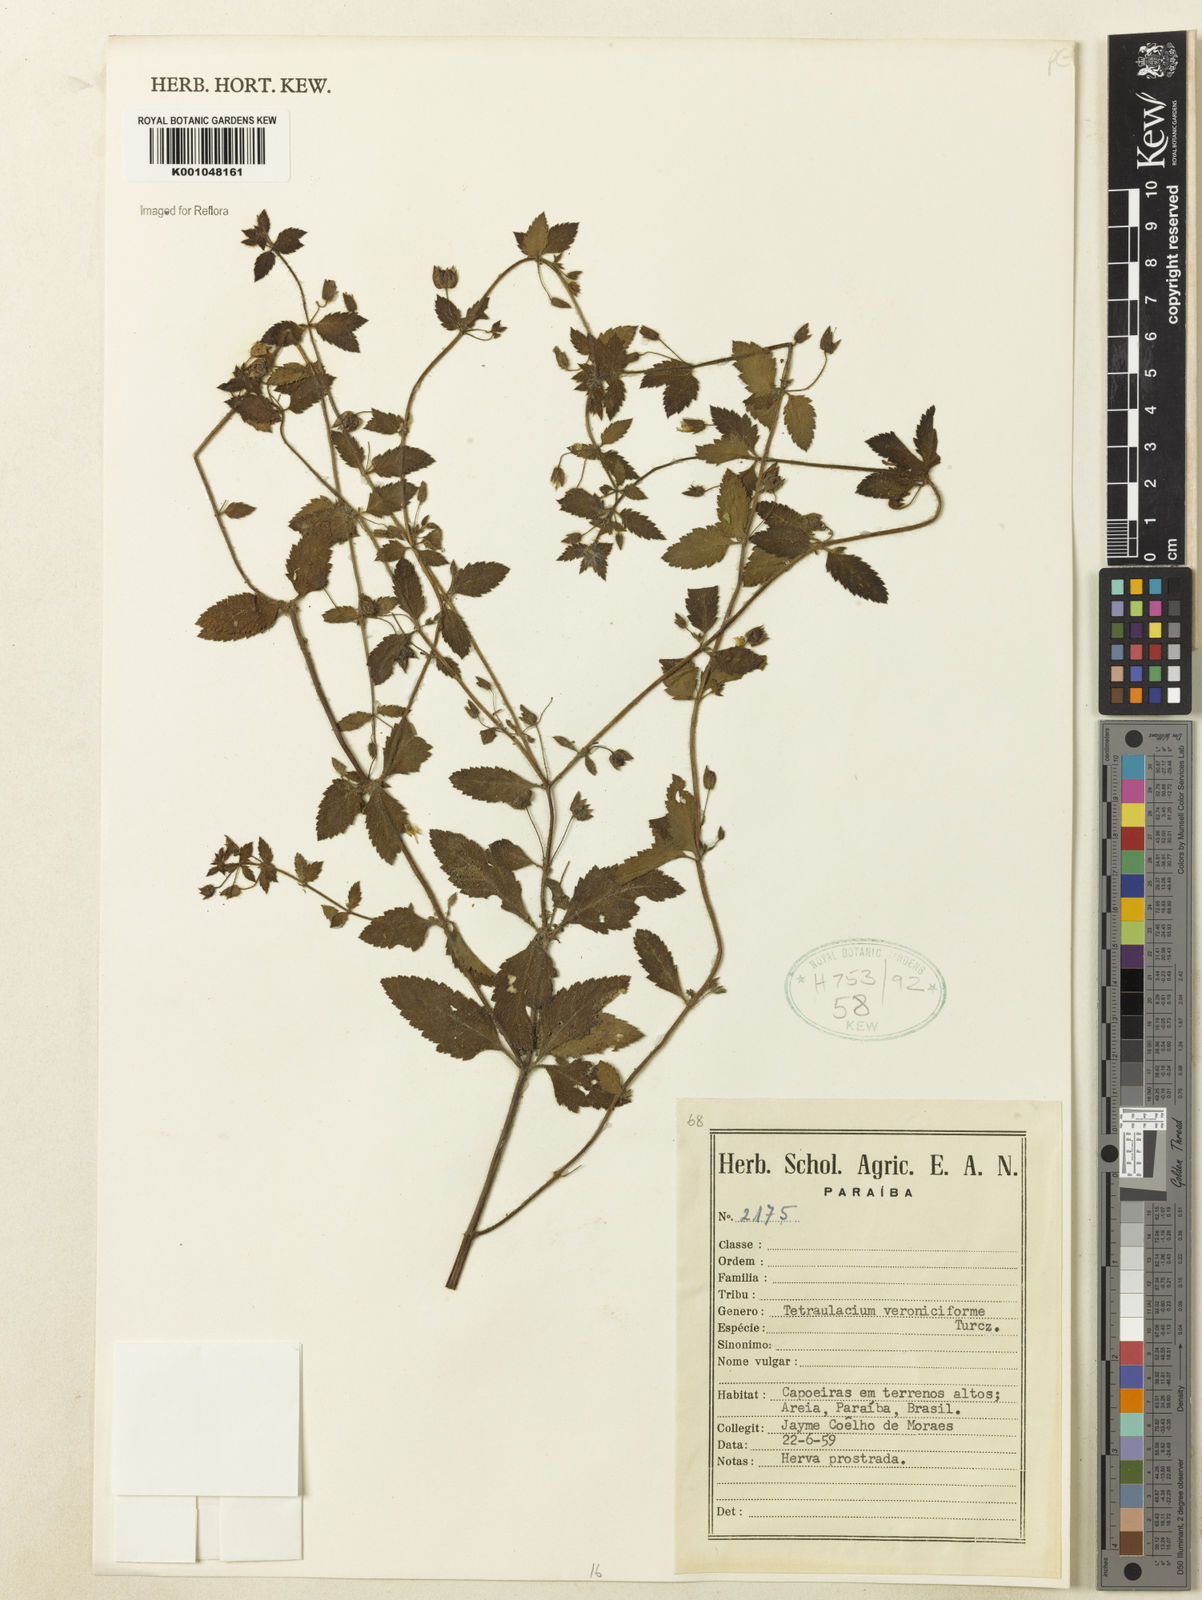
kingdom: Plantae
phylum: Tracheophyta
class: Magnoliopsida
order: Lamiales
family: Plantaginaceae
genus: Tetraulacium
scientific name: Tetraulacium veroniciforme
